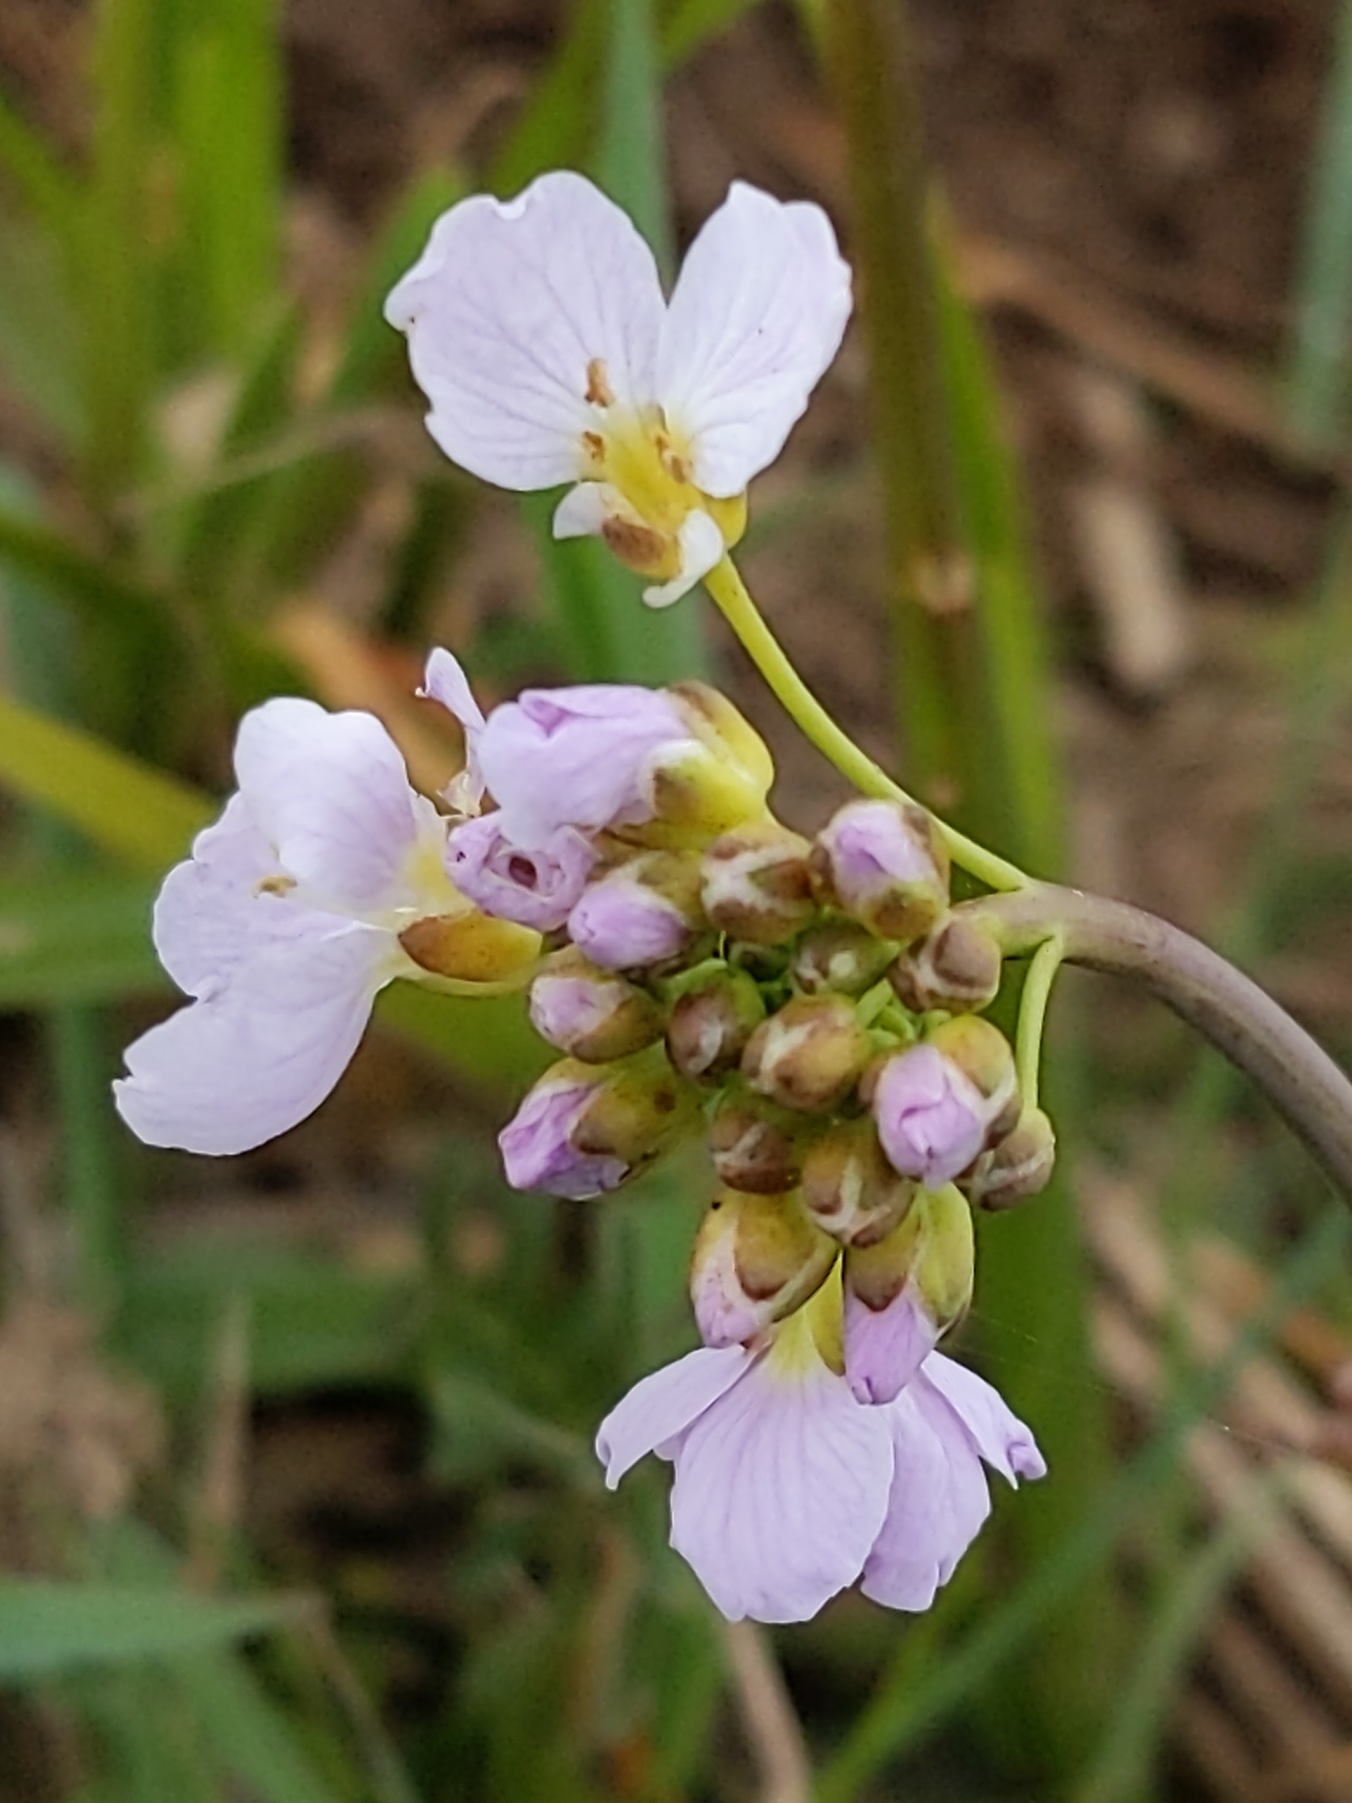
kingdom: Plantae
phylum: Tracheophyta
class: Magnoliopsida
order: Brassicales
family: Brassicaceae
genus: Cardamine
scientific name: Cardamine pratensis
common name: Engkarse
